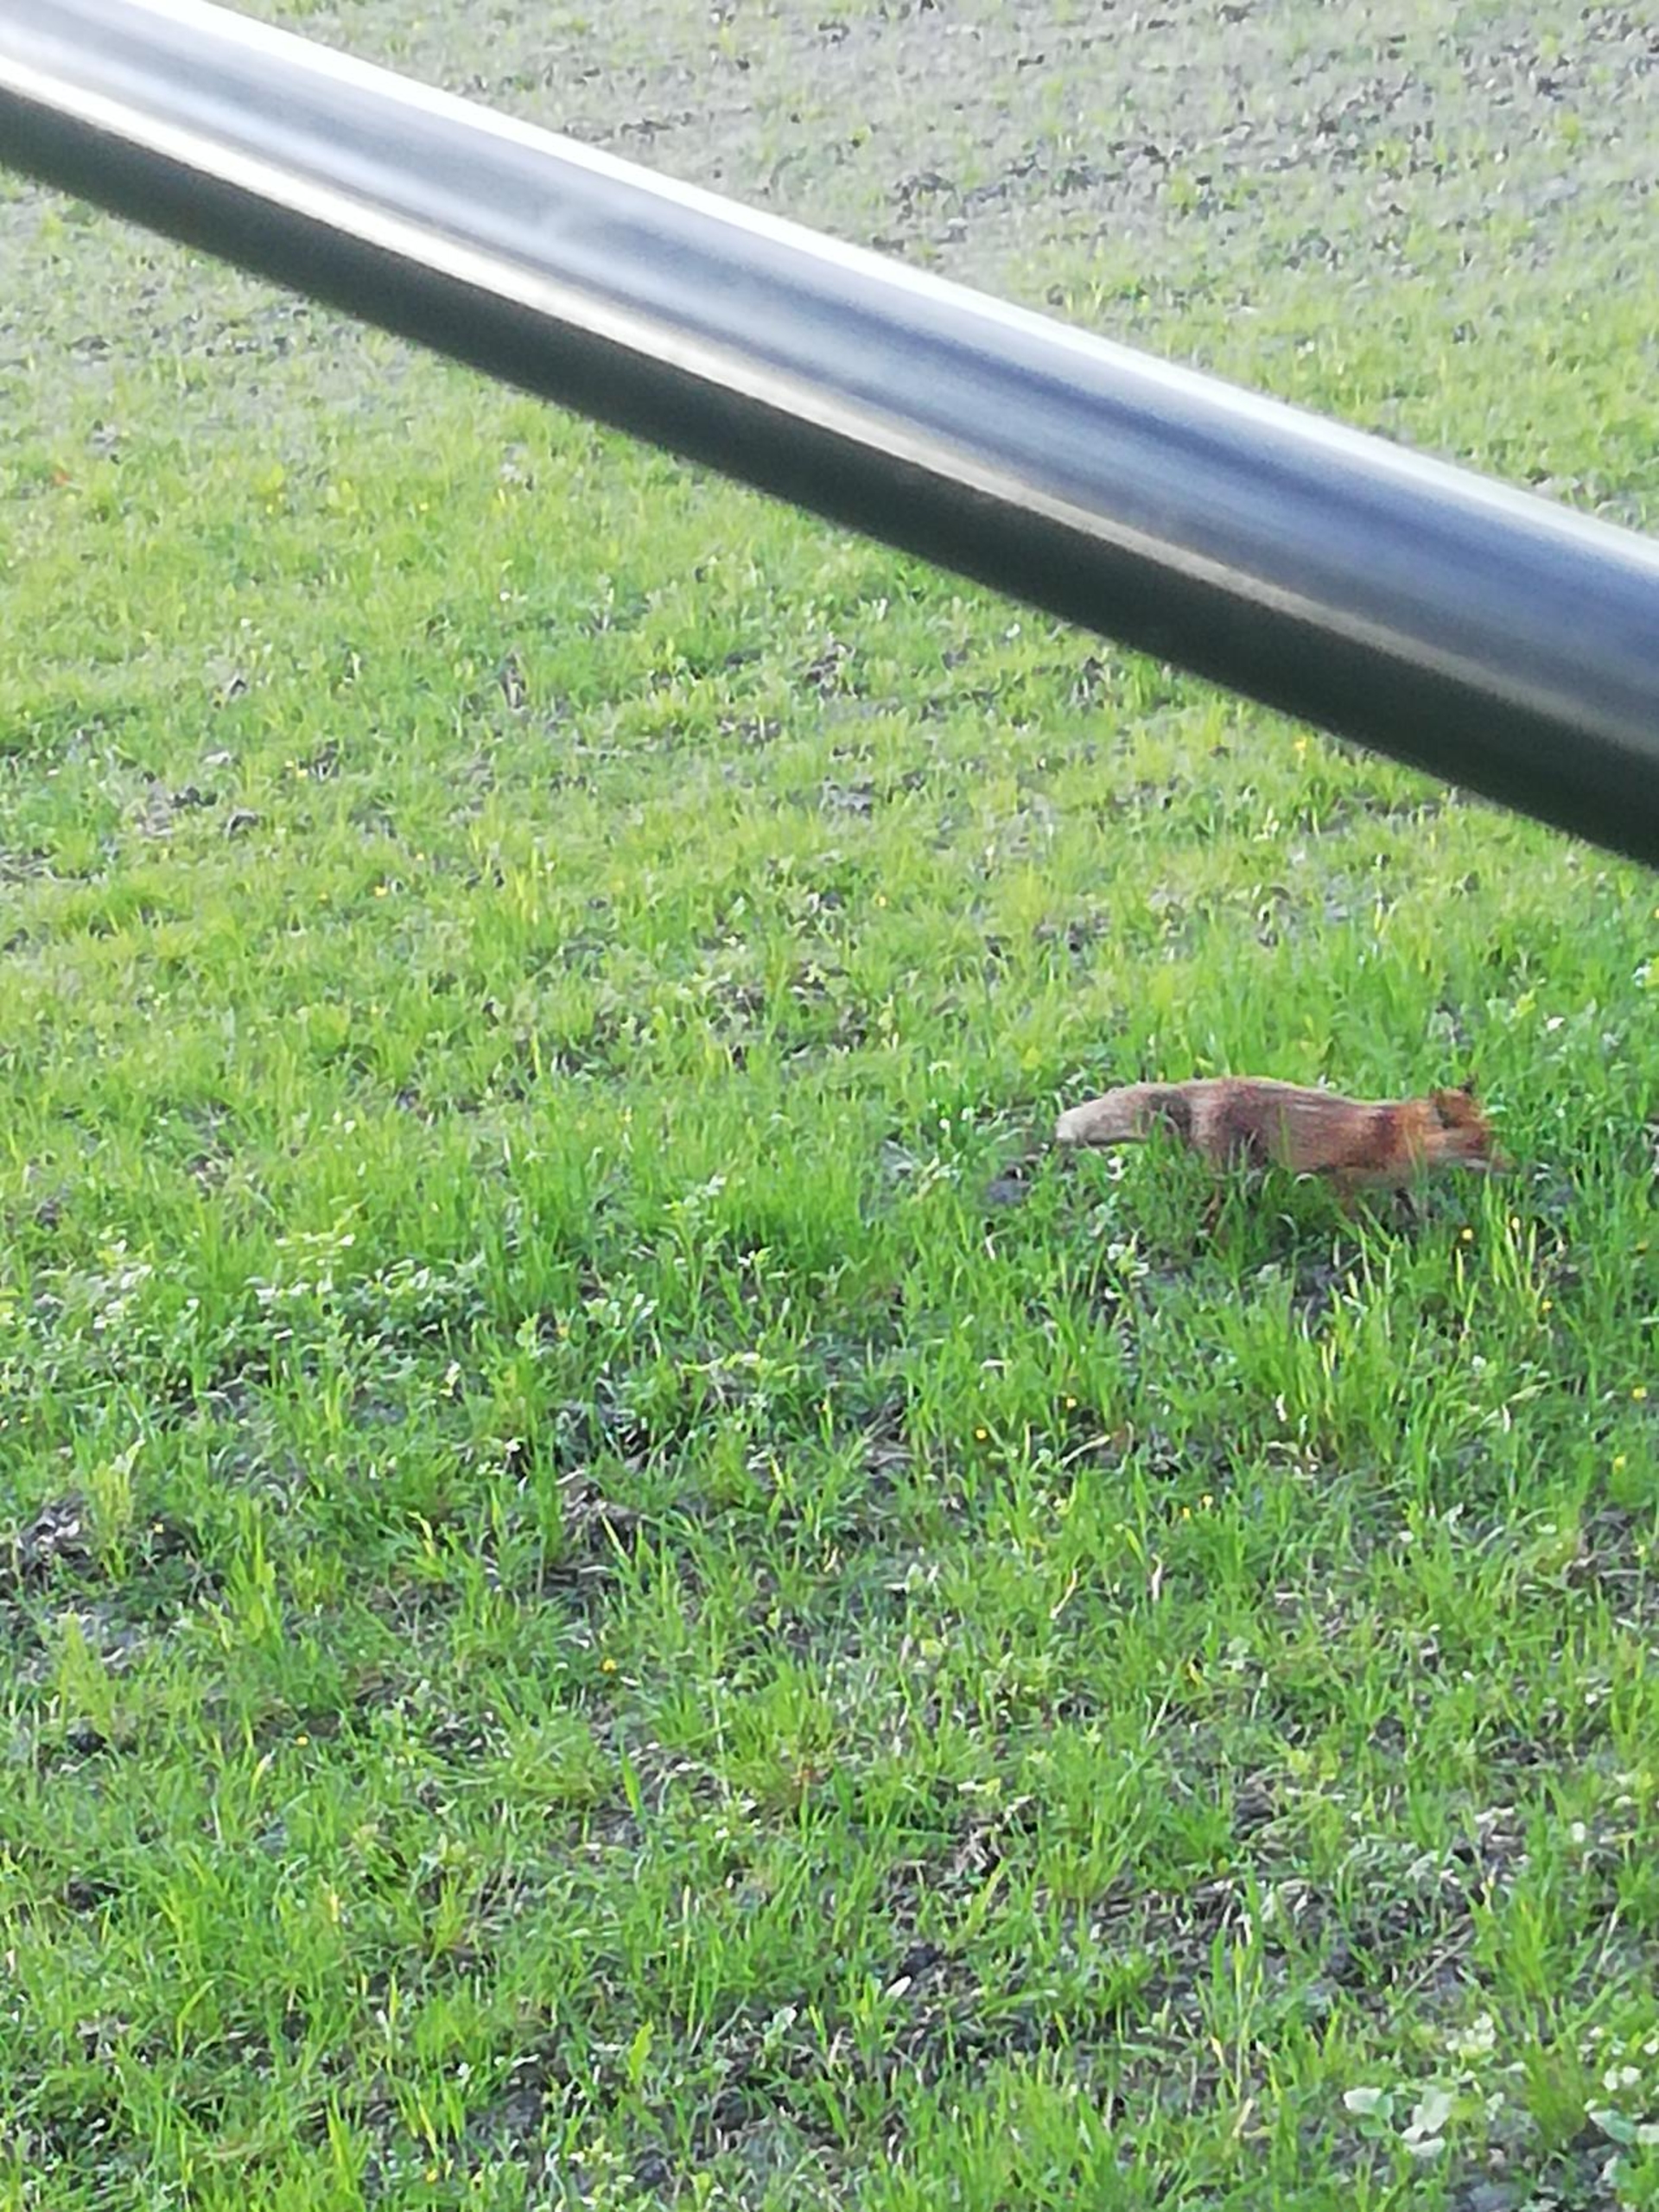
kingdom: Animalia
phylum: Chordata
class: Mammalia
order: Carnivora
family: Canidae
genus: Vulpes
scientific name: Vulpes vulpes
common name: Ræv
